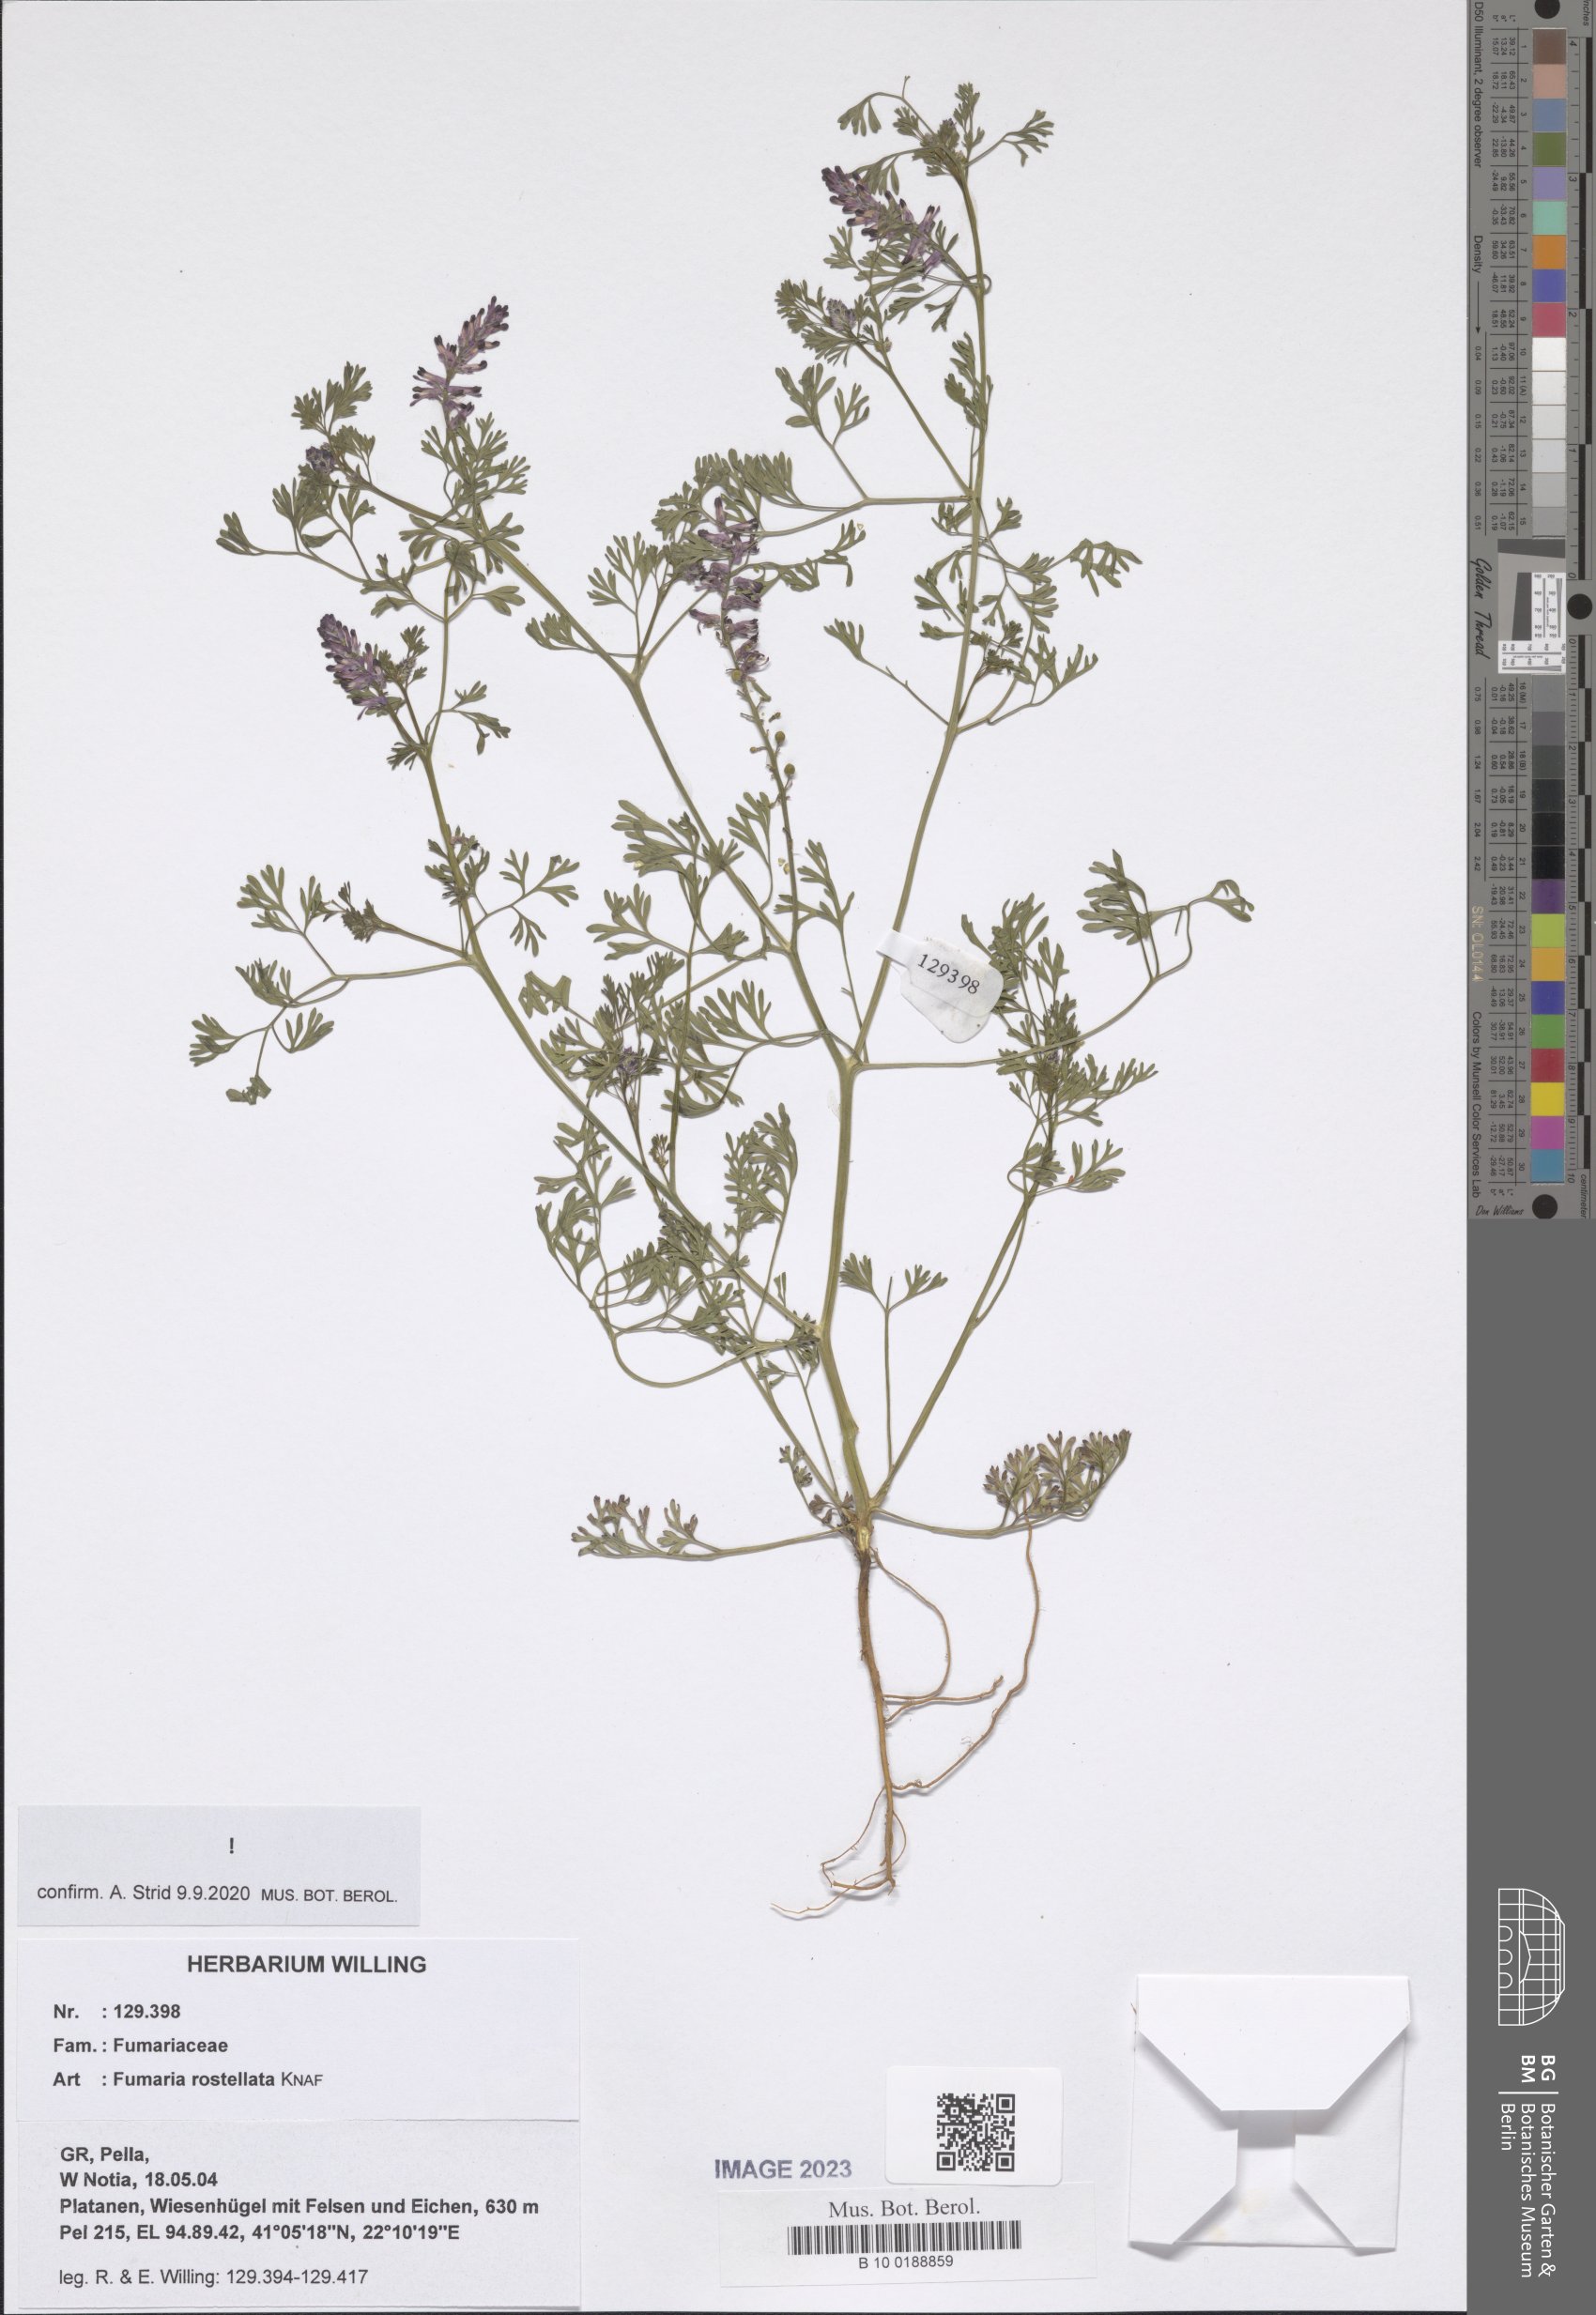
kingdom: Plantae
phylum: Tracheophyta
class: Magnoliopsida
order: Ranunculales
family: Papaveraceae
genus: Fumaria
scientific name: Fumaria rostellata
